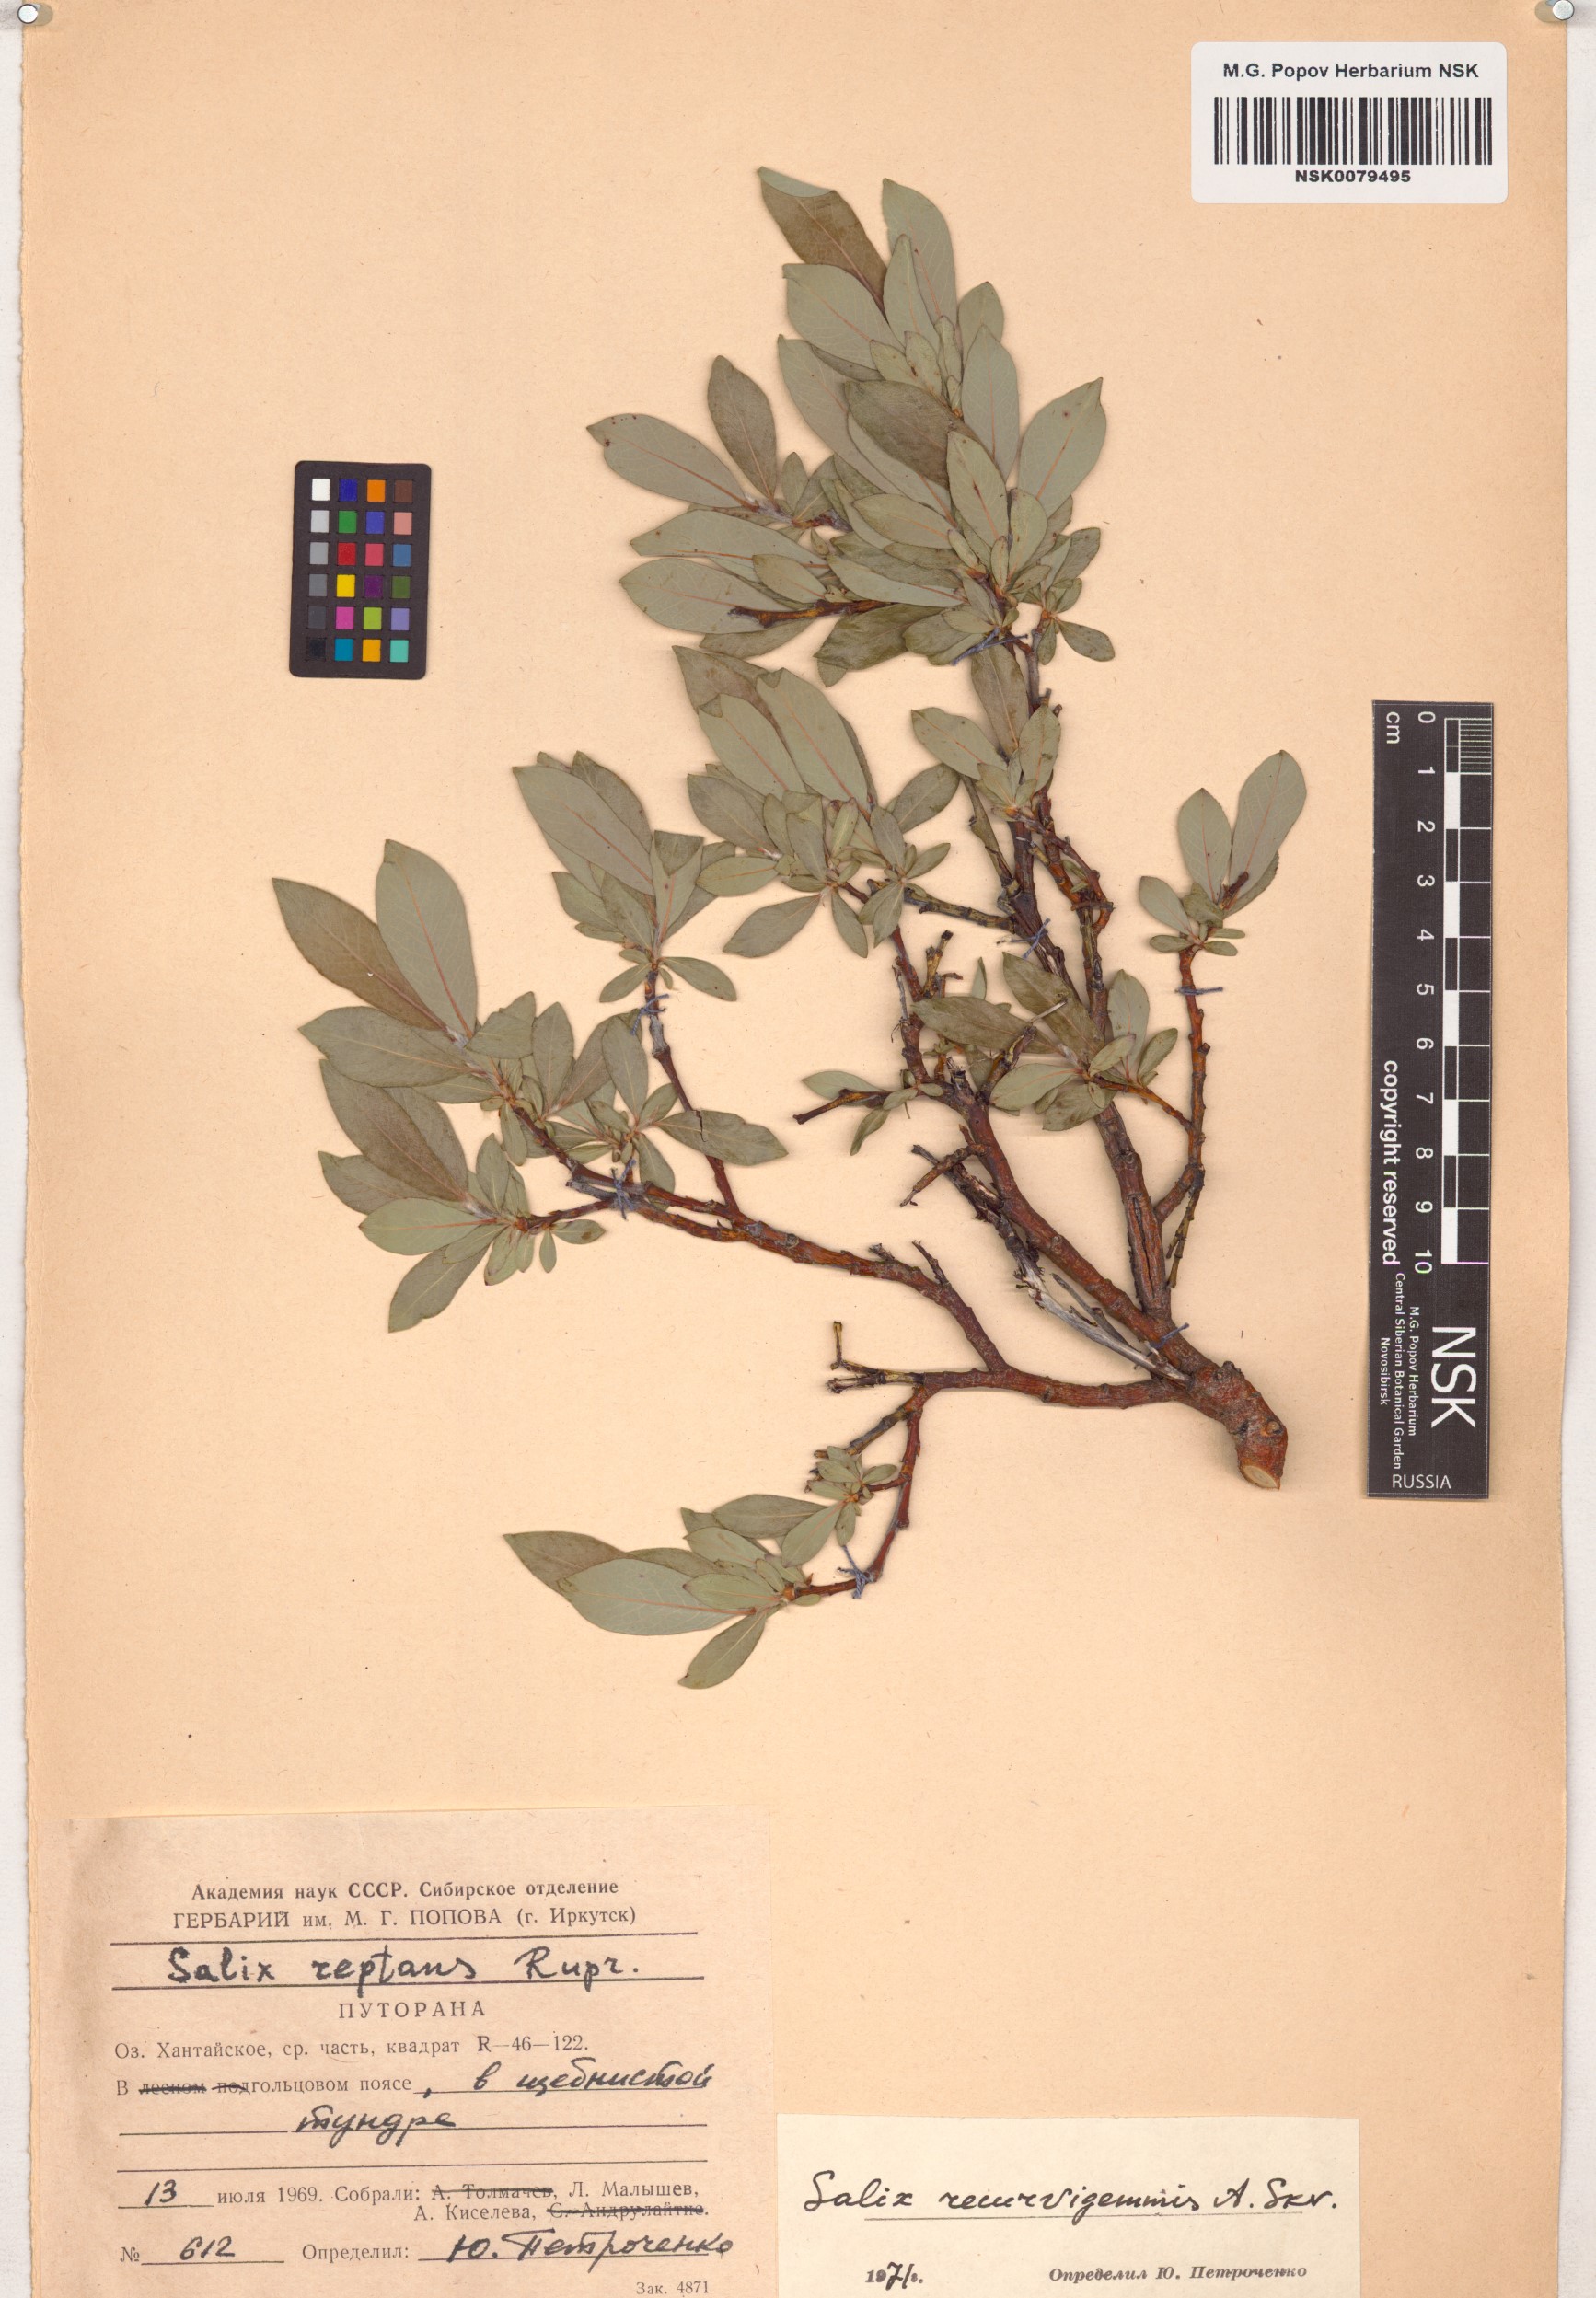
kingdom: Plantae
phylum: Tracheophyta
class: Magnoliopsida
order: Malpighiales
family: Salicaceae
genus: Salix
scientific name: Salix recurvigemmata
